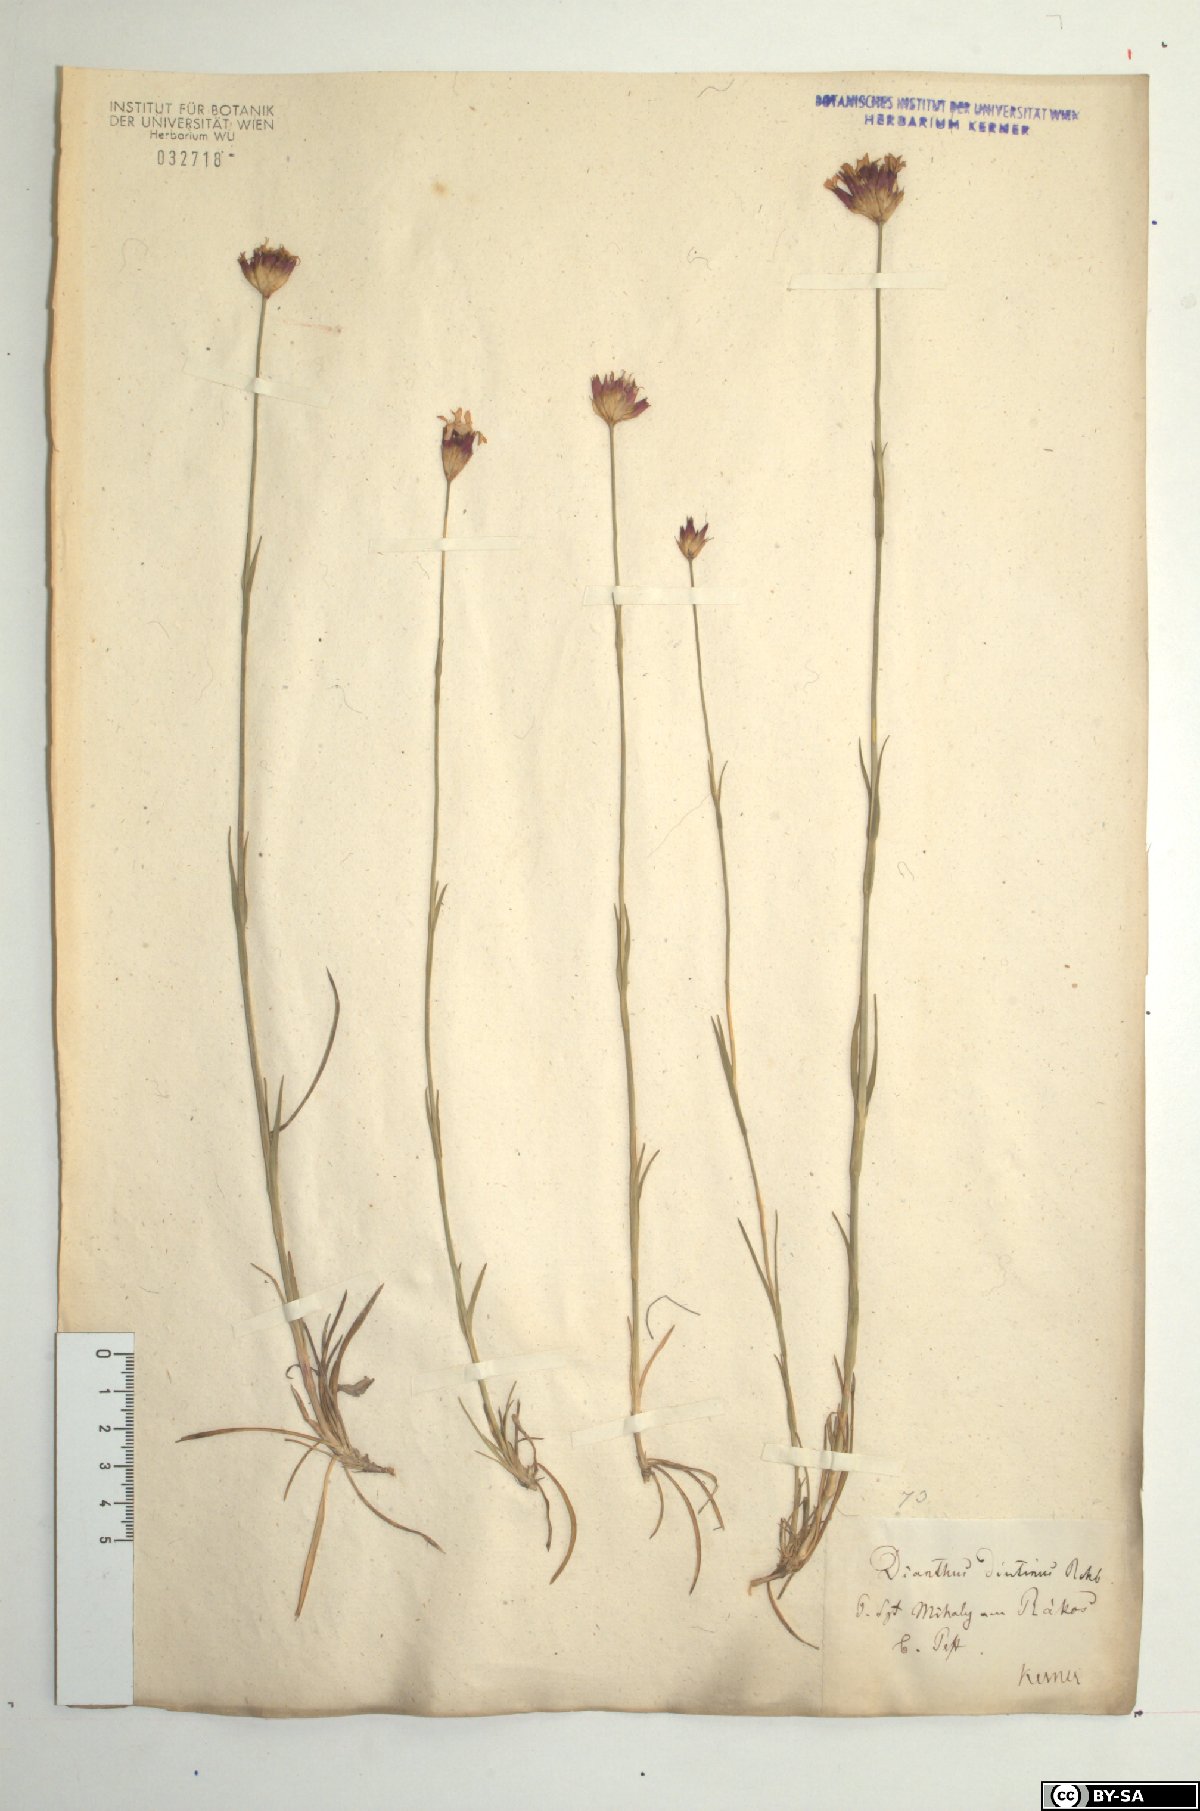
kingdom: Plantae
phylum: Tracheophyta
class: Magnoliopsida
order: Caryophyllales
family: Caryophyllaceae
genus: Dianthus
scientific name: Dianthus pontederae
